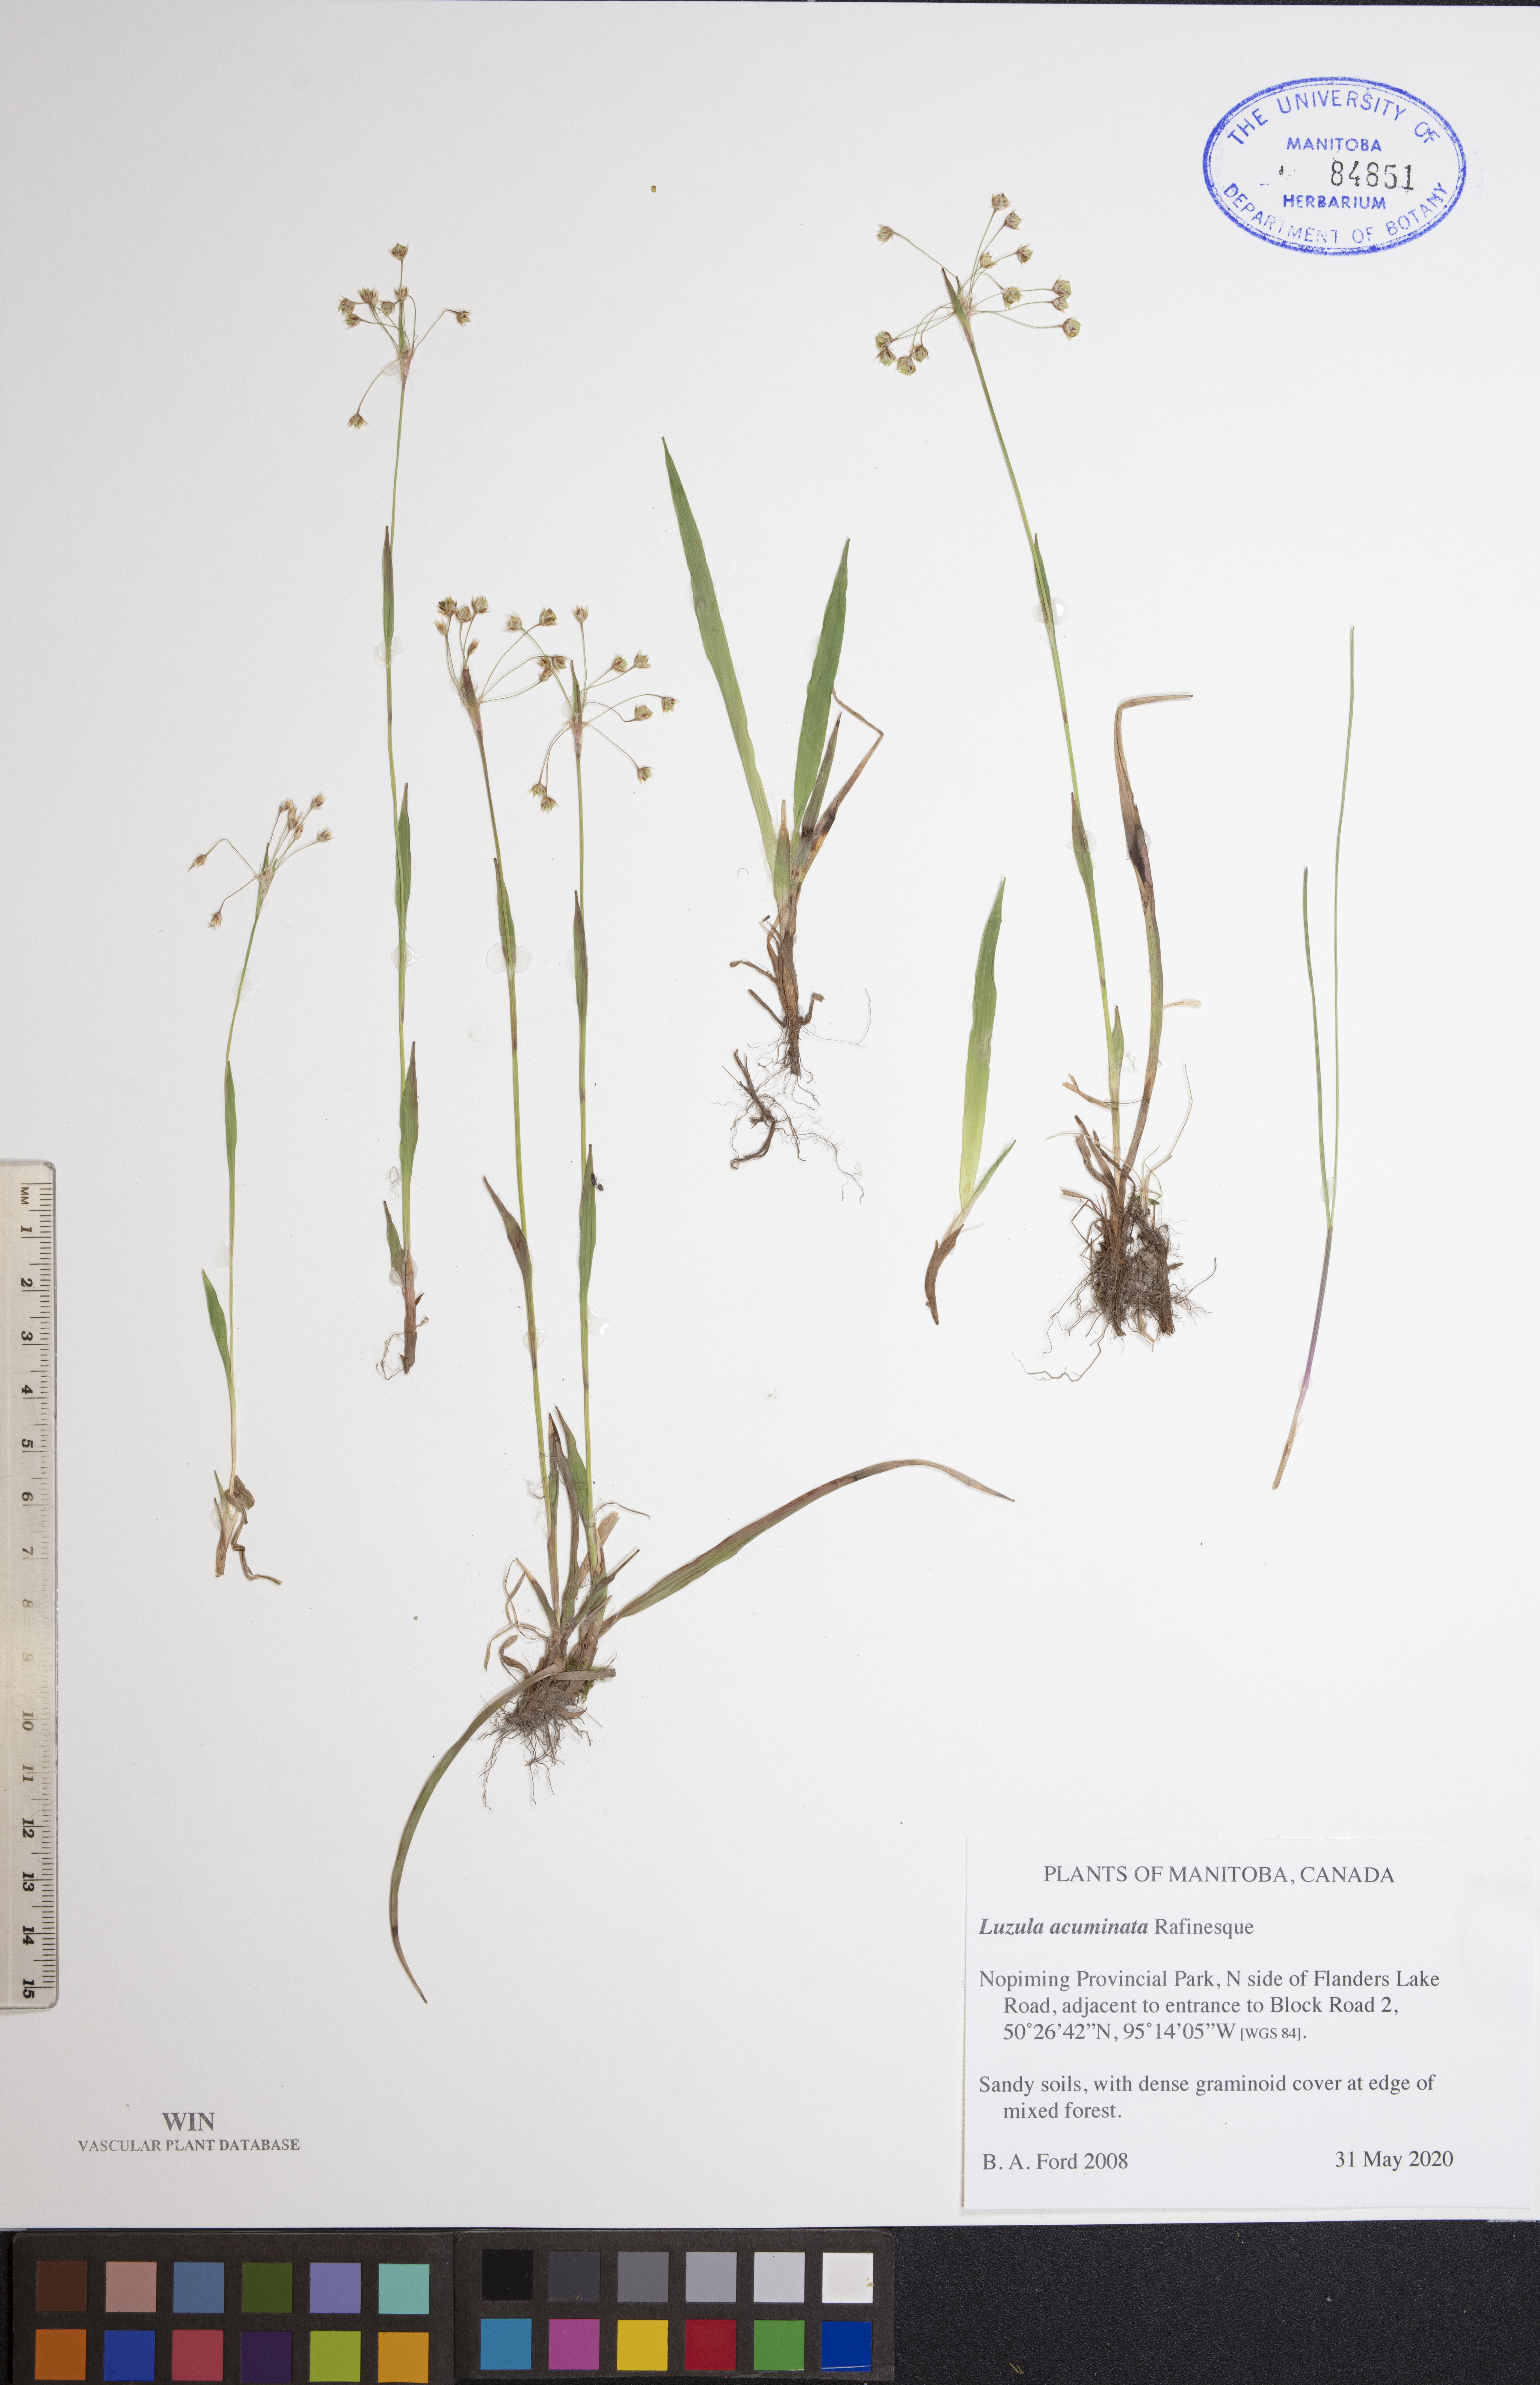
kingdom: Plantae
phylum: Tracheophyta
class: Liliopsida
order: Poales
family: Juncaceae
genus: Luzula
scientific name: Luzula acuminata
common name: Hairy woodrush
